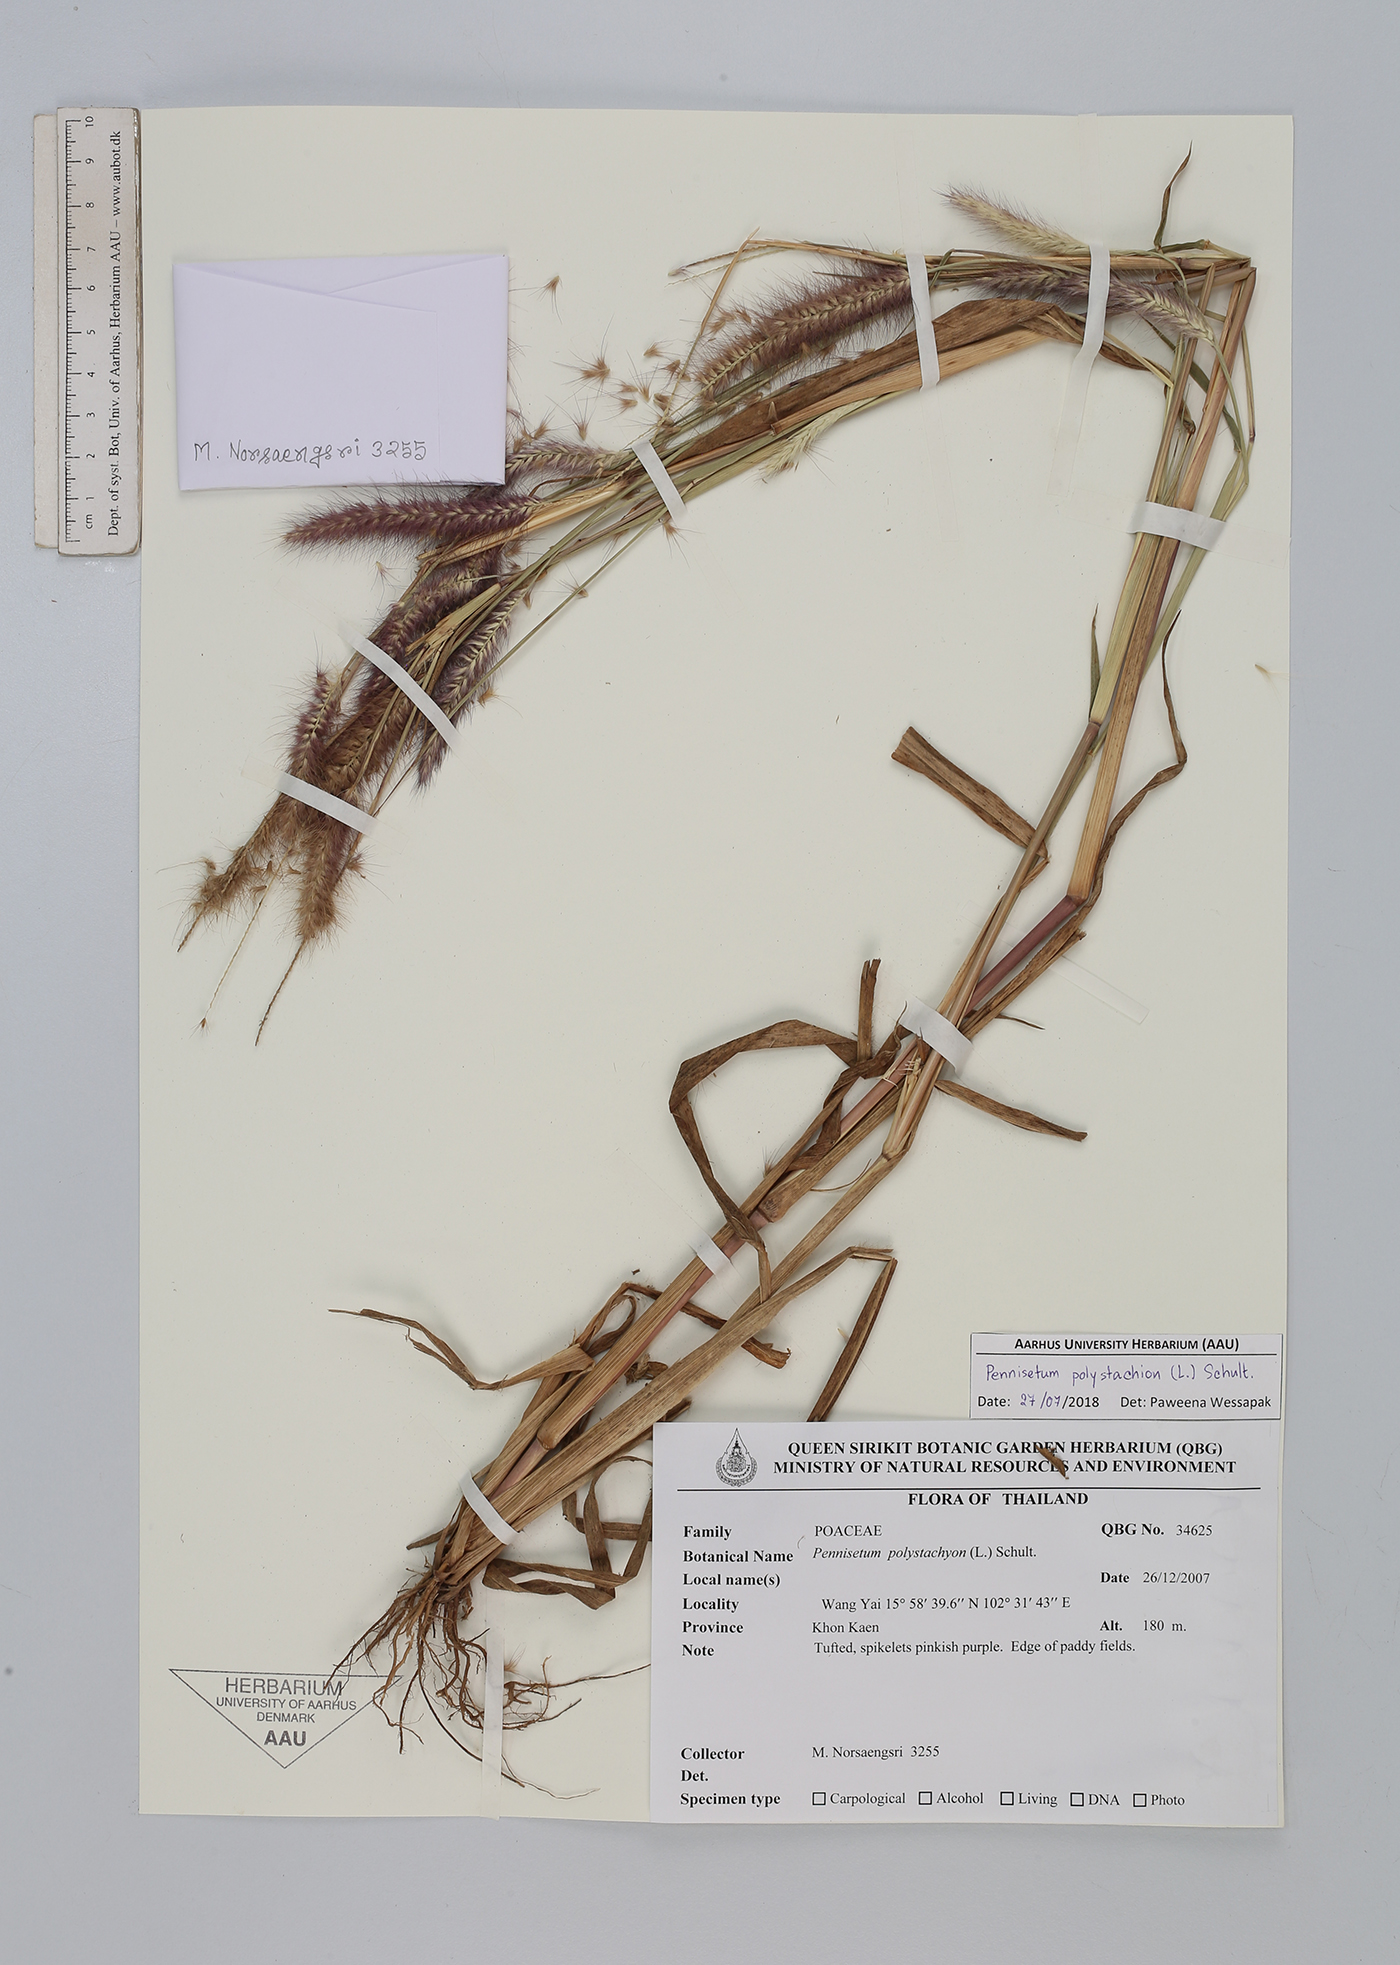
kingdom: Plantae
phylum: Tracheophyta
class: Liliopsida
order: Poales
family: Poaceae
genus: Setaria
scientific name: Setaria parviflora
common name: Knotroot bristle-grass
